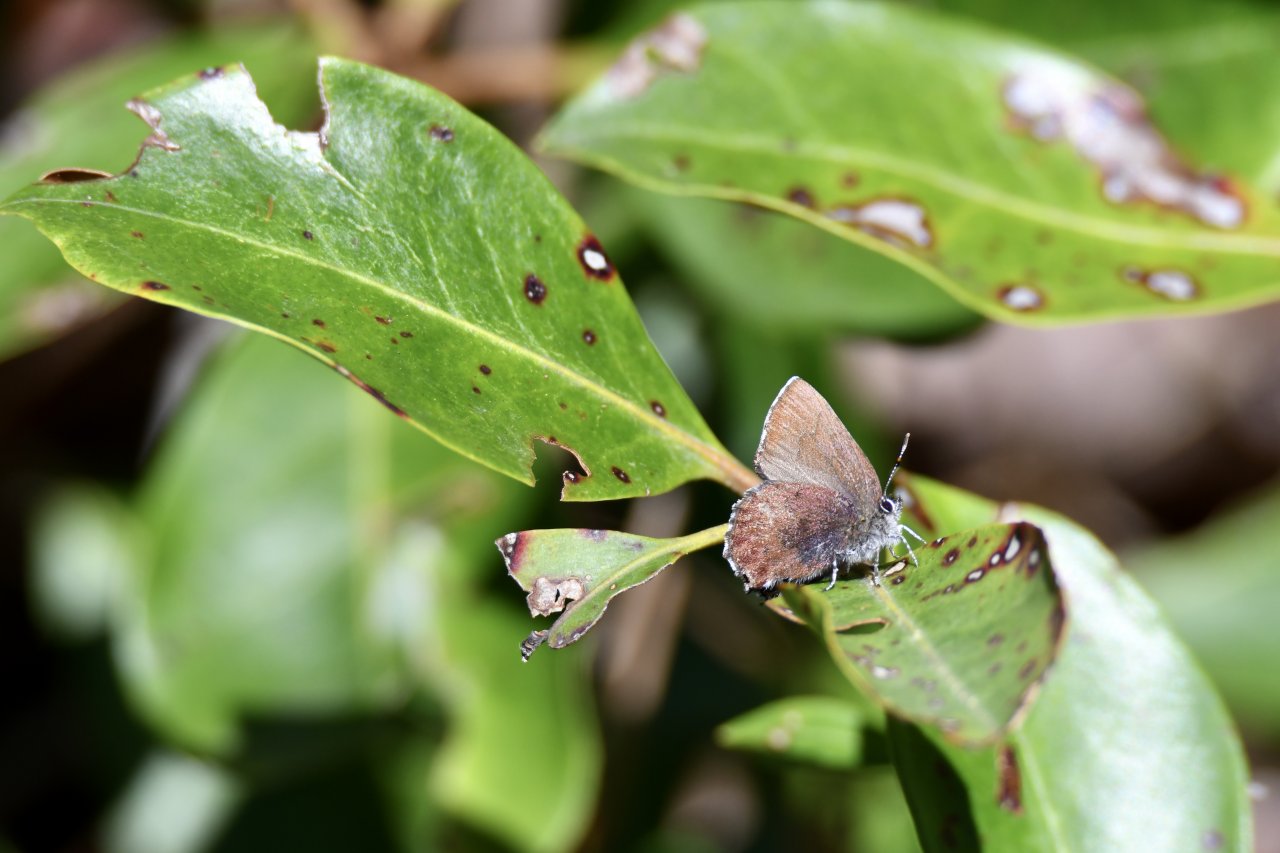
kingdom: Animalia
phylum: Arthropoda
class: Insecta
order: Lepidoptera
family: Lycaenidae
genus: Incisalia
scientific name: Incisalia irioides
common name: Brown Elfin
